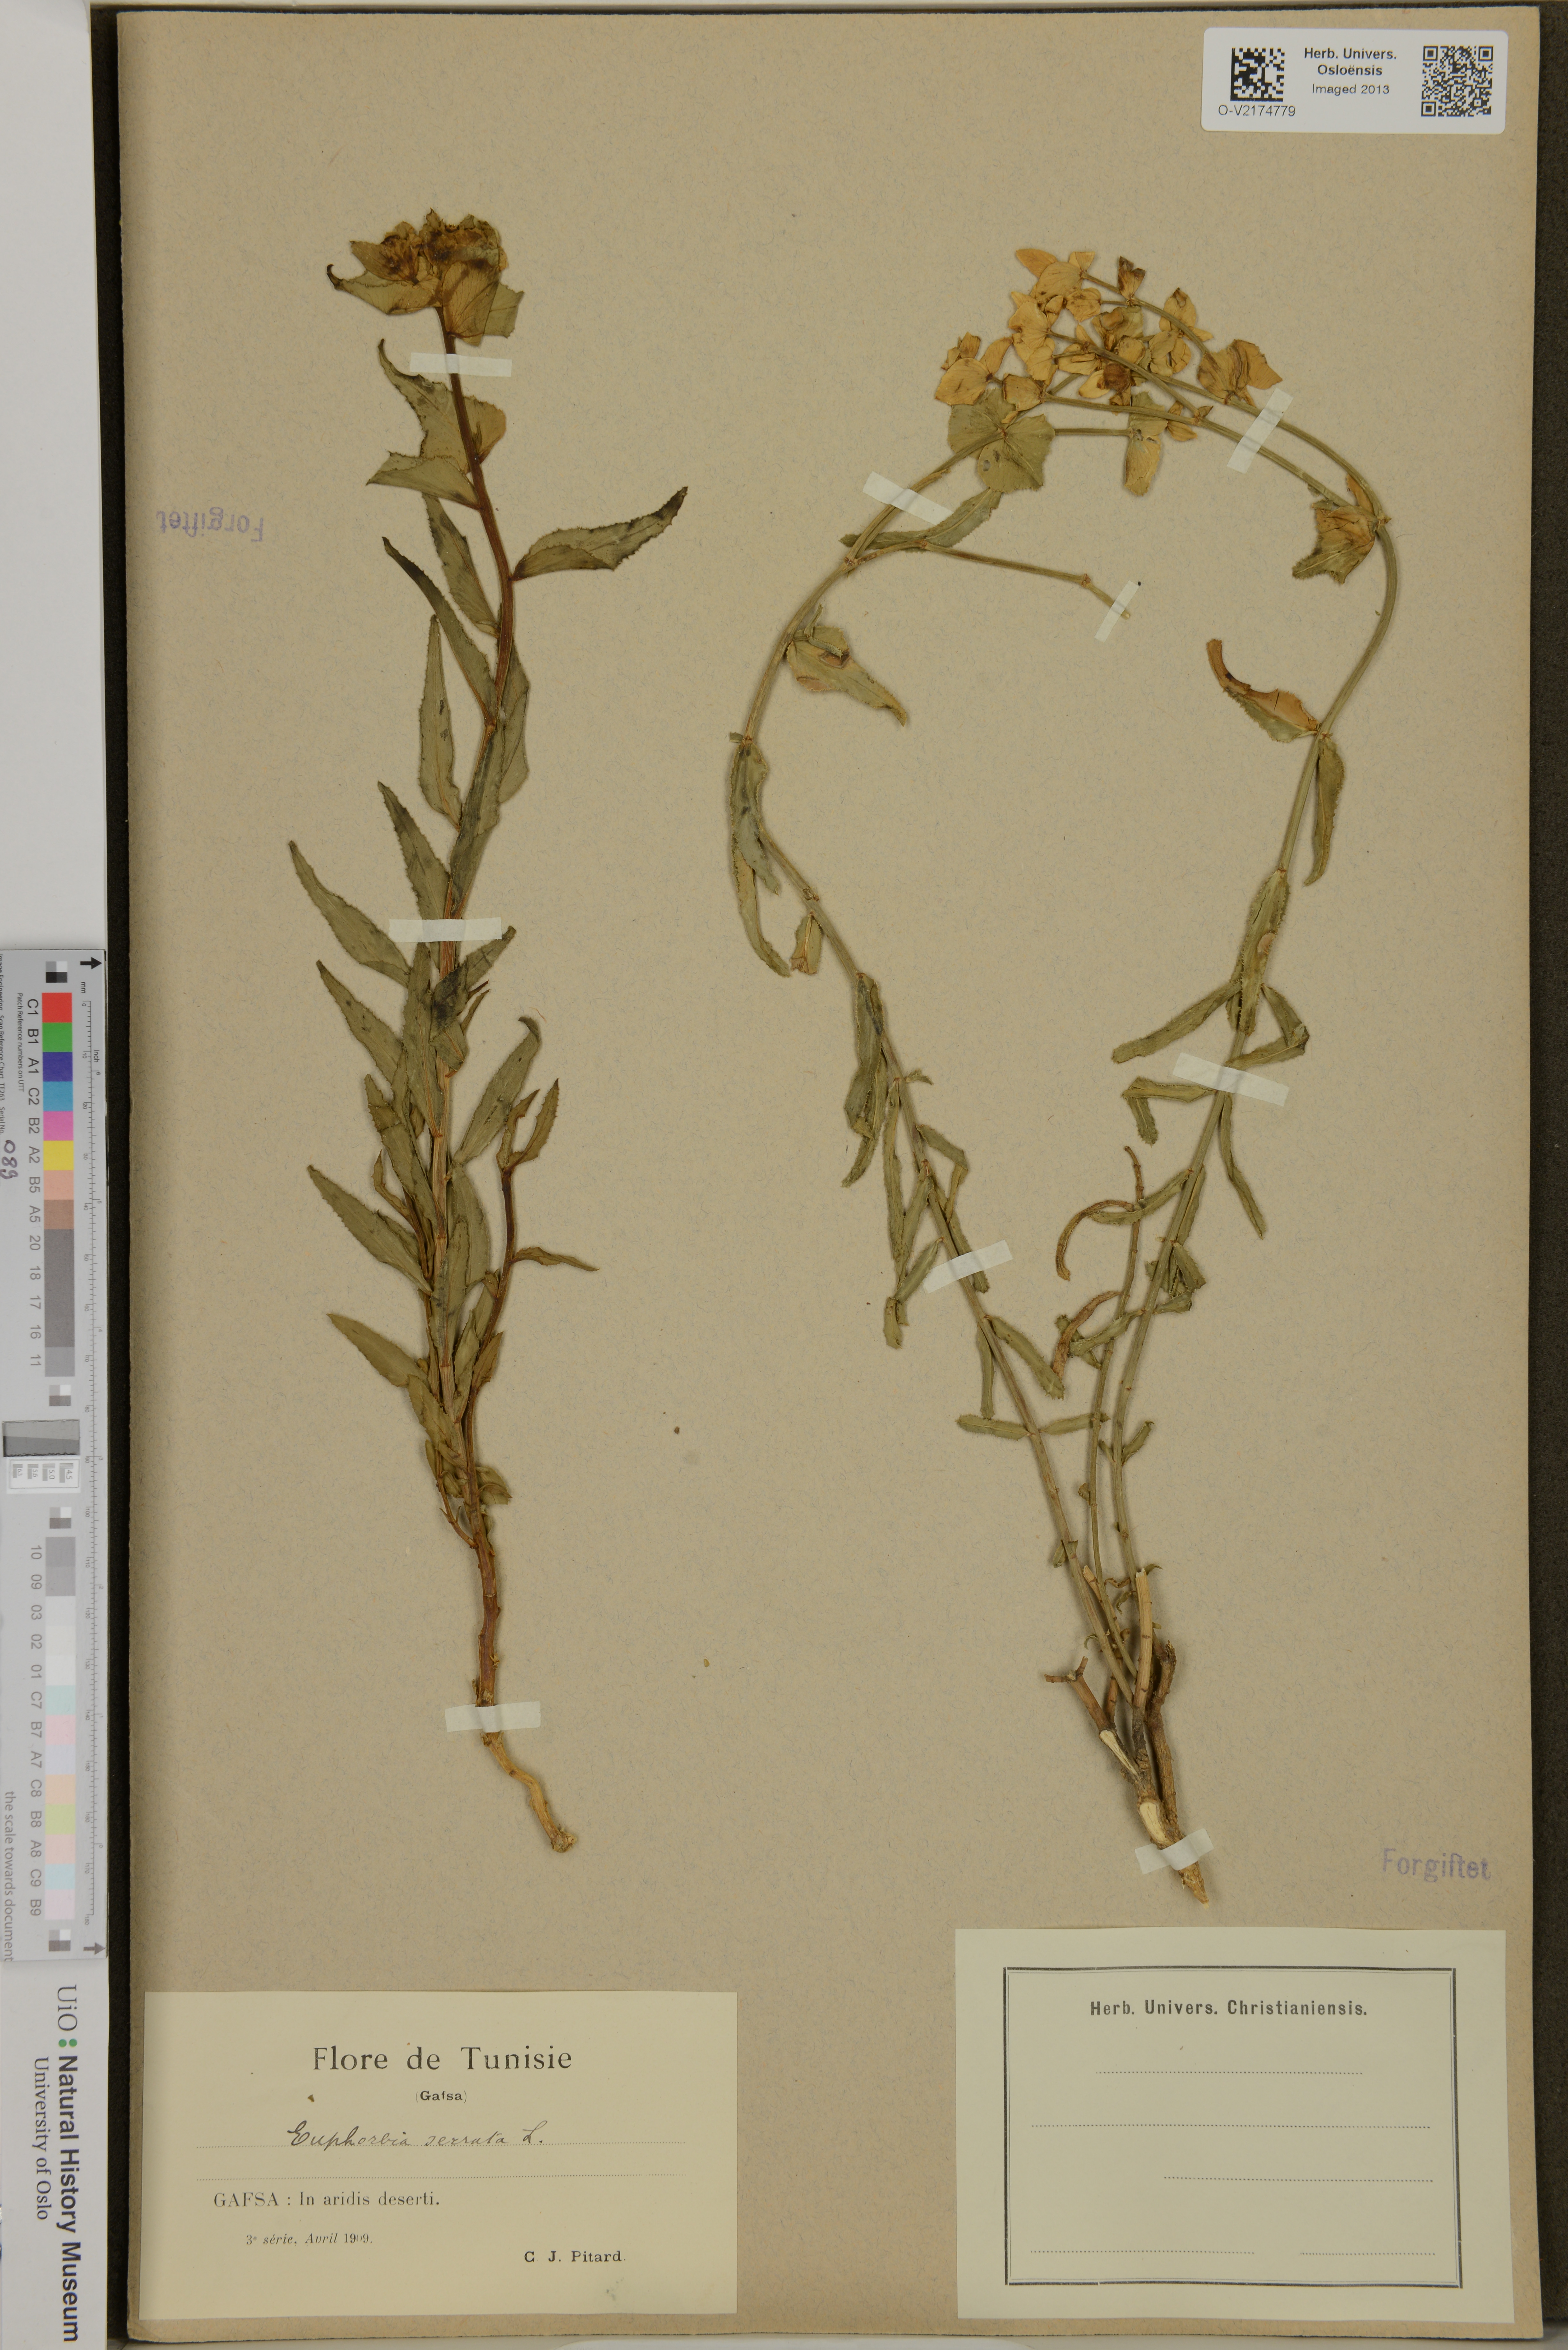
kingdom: Plantae
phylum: Tracheophyta
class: Magnoliopsida
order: Malpighiales
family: Euphorbiaceae
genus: Euphorbia
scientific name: Euphorbia serrata
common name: Serrate spurge
